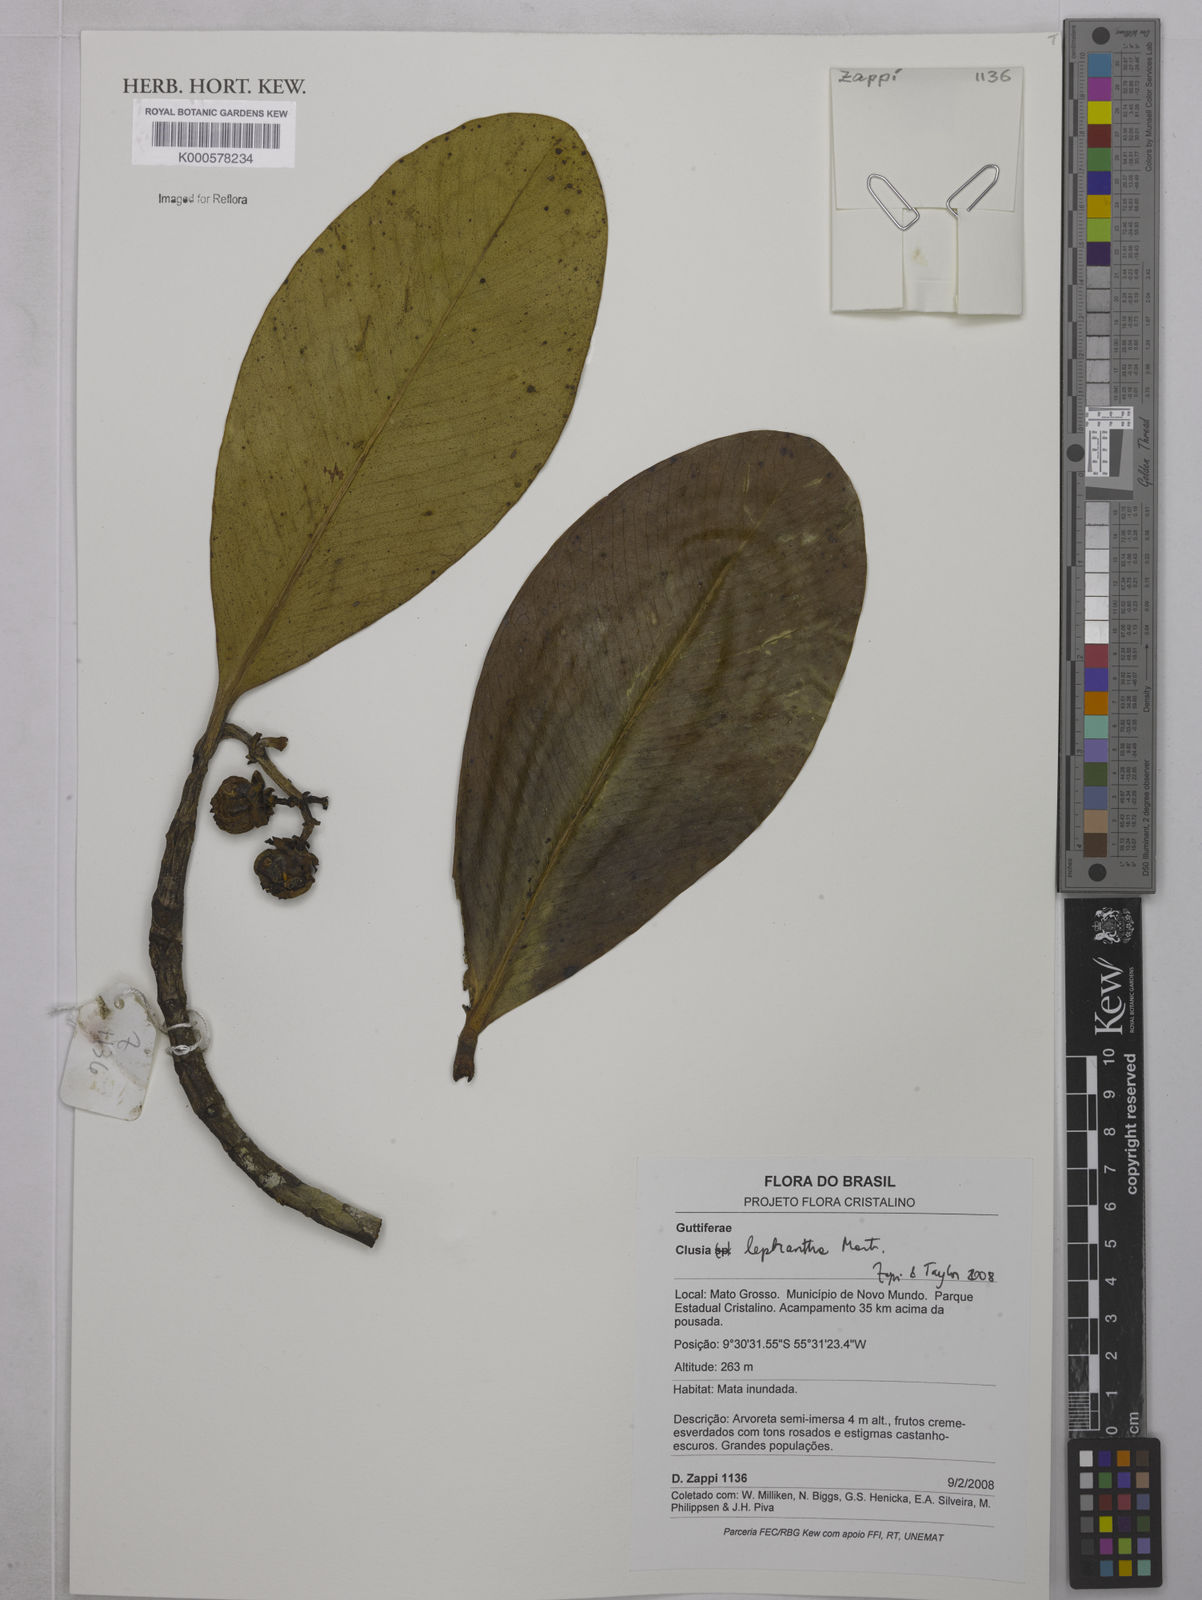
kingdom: Plantae
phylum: Tracheophyta
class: Magnoliopsida
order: Malpighiales
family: Clusiaceae
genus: Clusia
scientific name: Clusia leprantha
